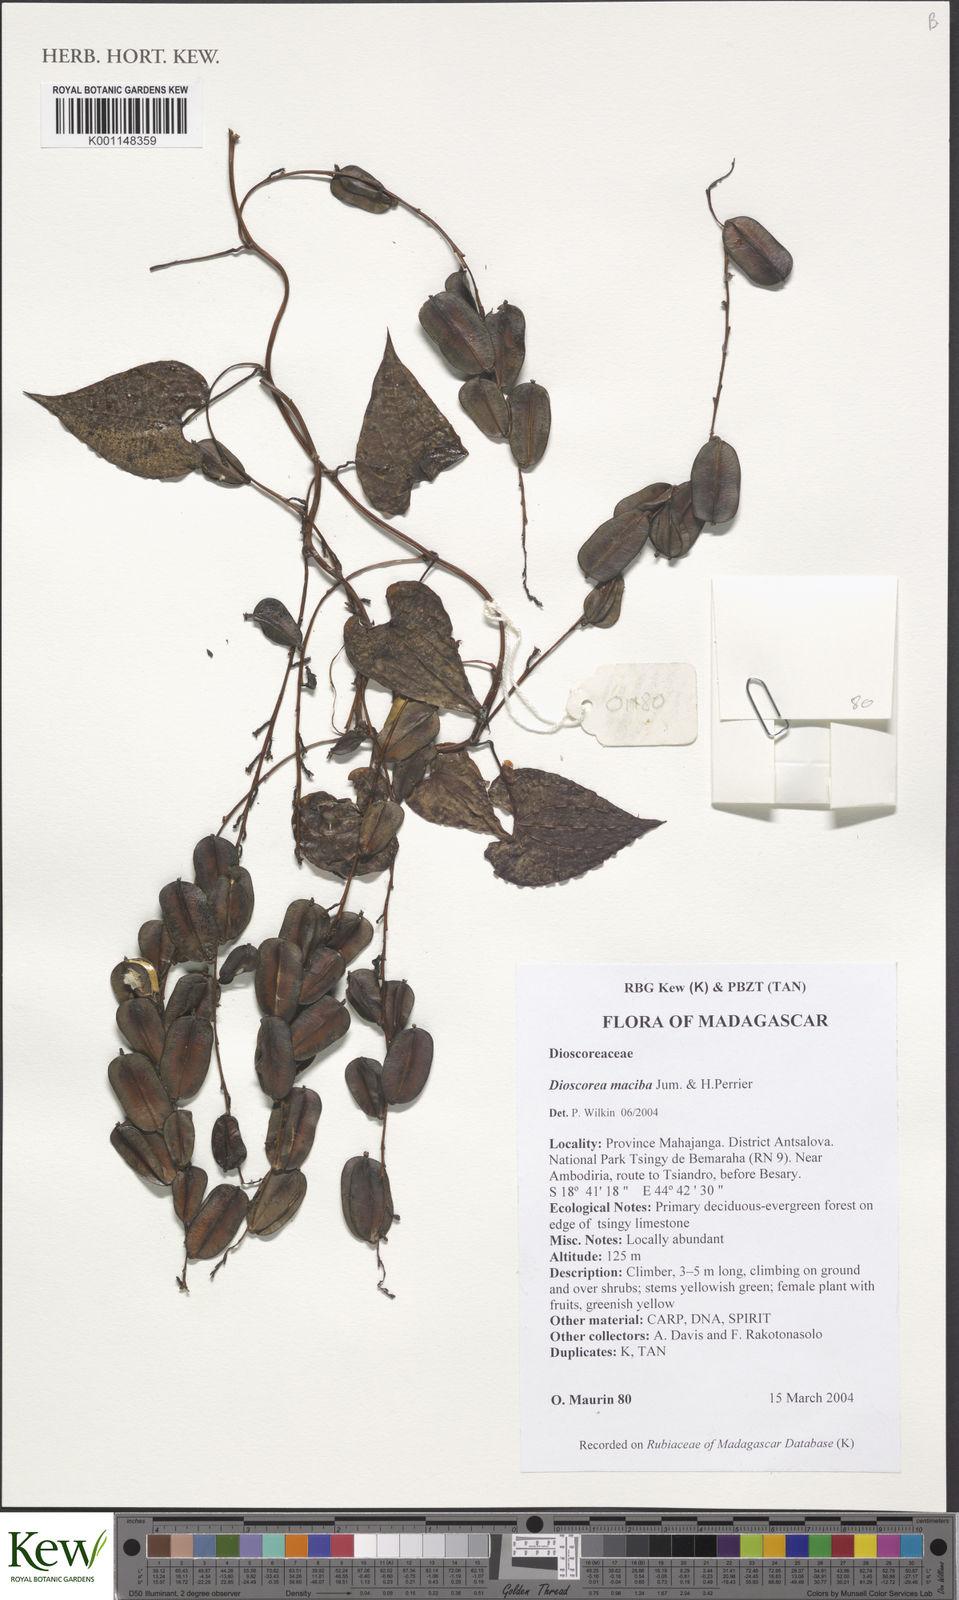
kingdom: Plantae
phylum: Tracheophyta
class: Liliopsida
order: Dioscoreales
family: Dioscoreaceae
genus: Dioscorea
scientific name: Dioscorea maciba
